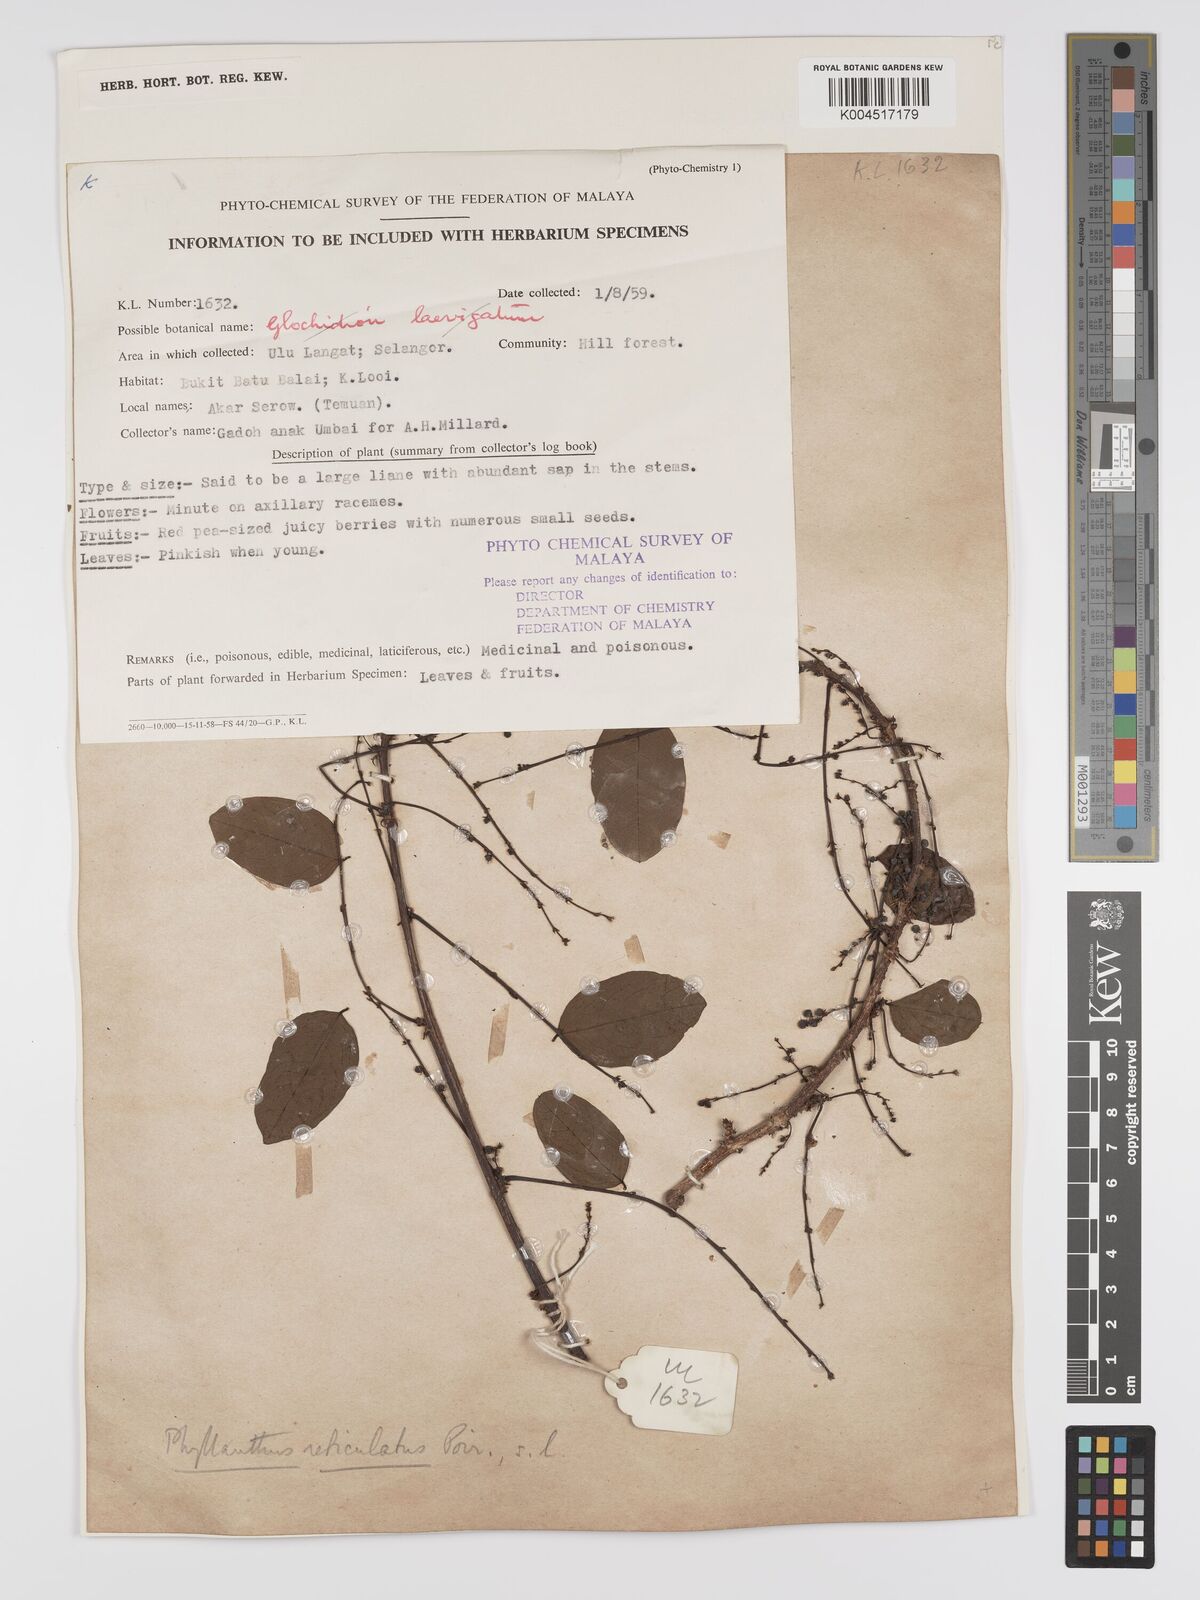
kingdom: Plantae
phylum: Tracheophyta
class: Magnoliopsida
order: Malpighiales
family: Phyllanthaceae
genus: Phyllanthus
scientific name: Phyllanthus microcarpus
